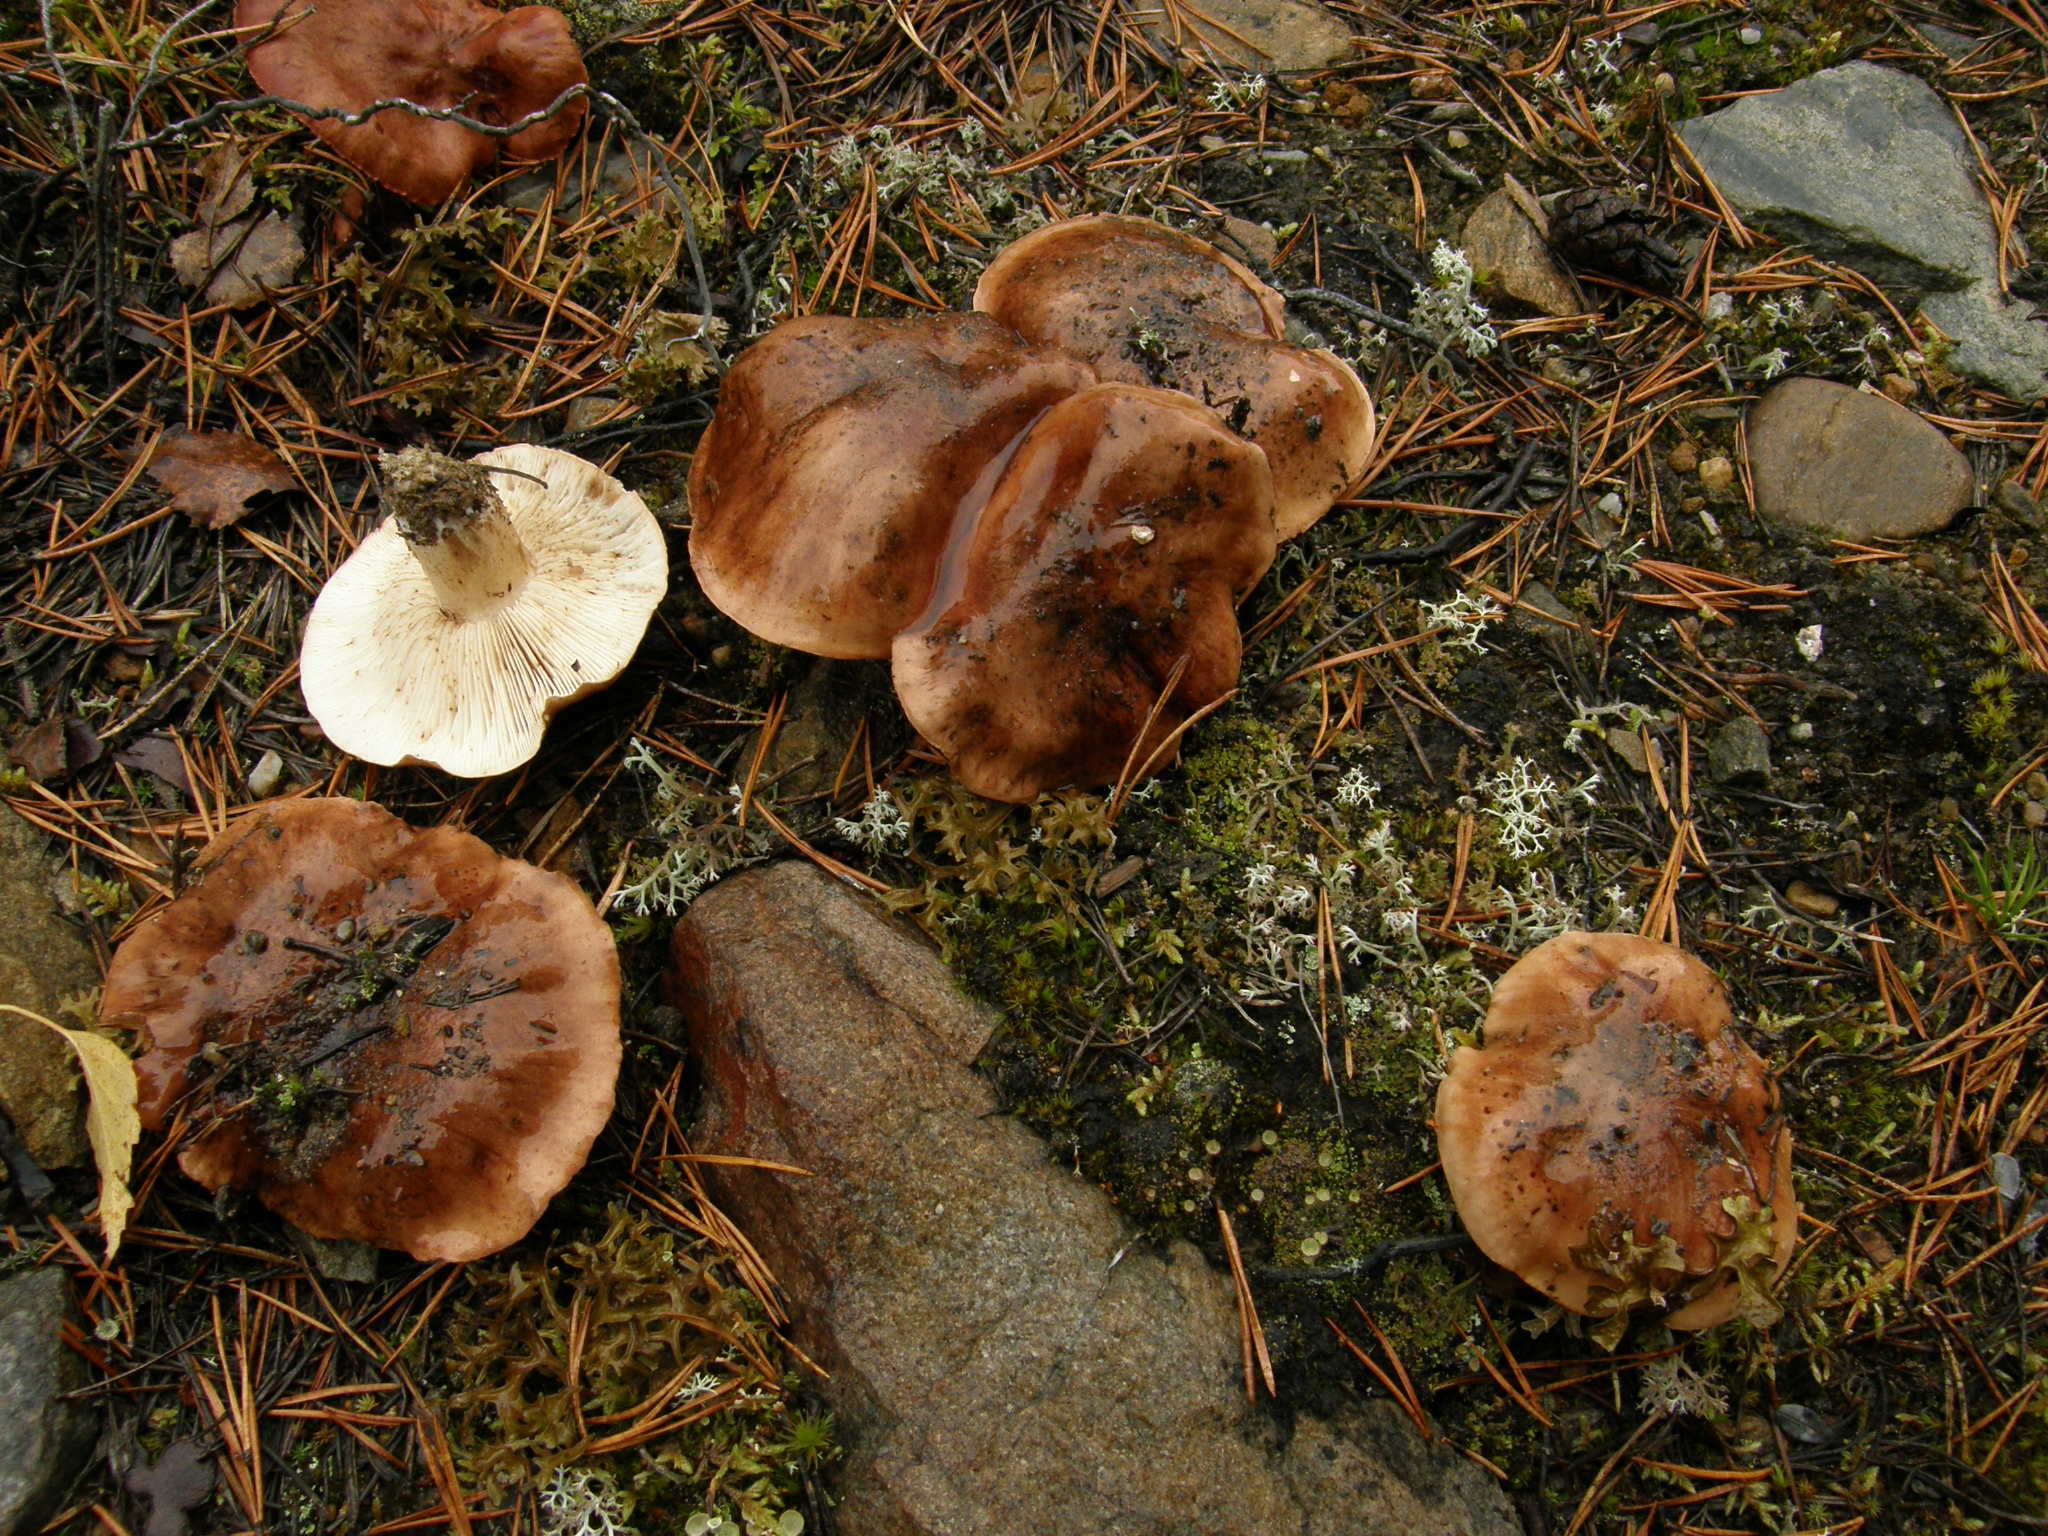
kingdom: Fungi
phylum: Basidiomycota
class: Agaricomycetes
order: Agaricales
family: Tricholomataceae
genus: Tricholoma
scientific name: Tricholoma pessundatum
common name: Tacked knight
